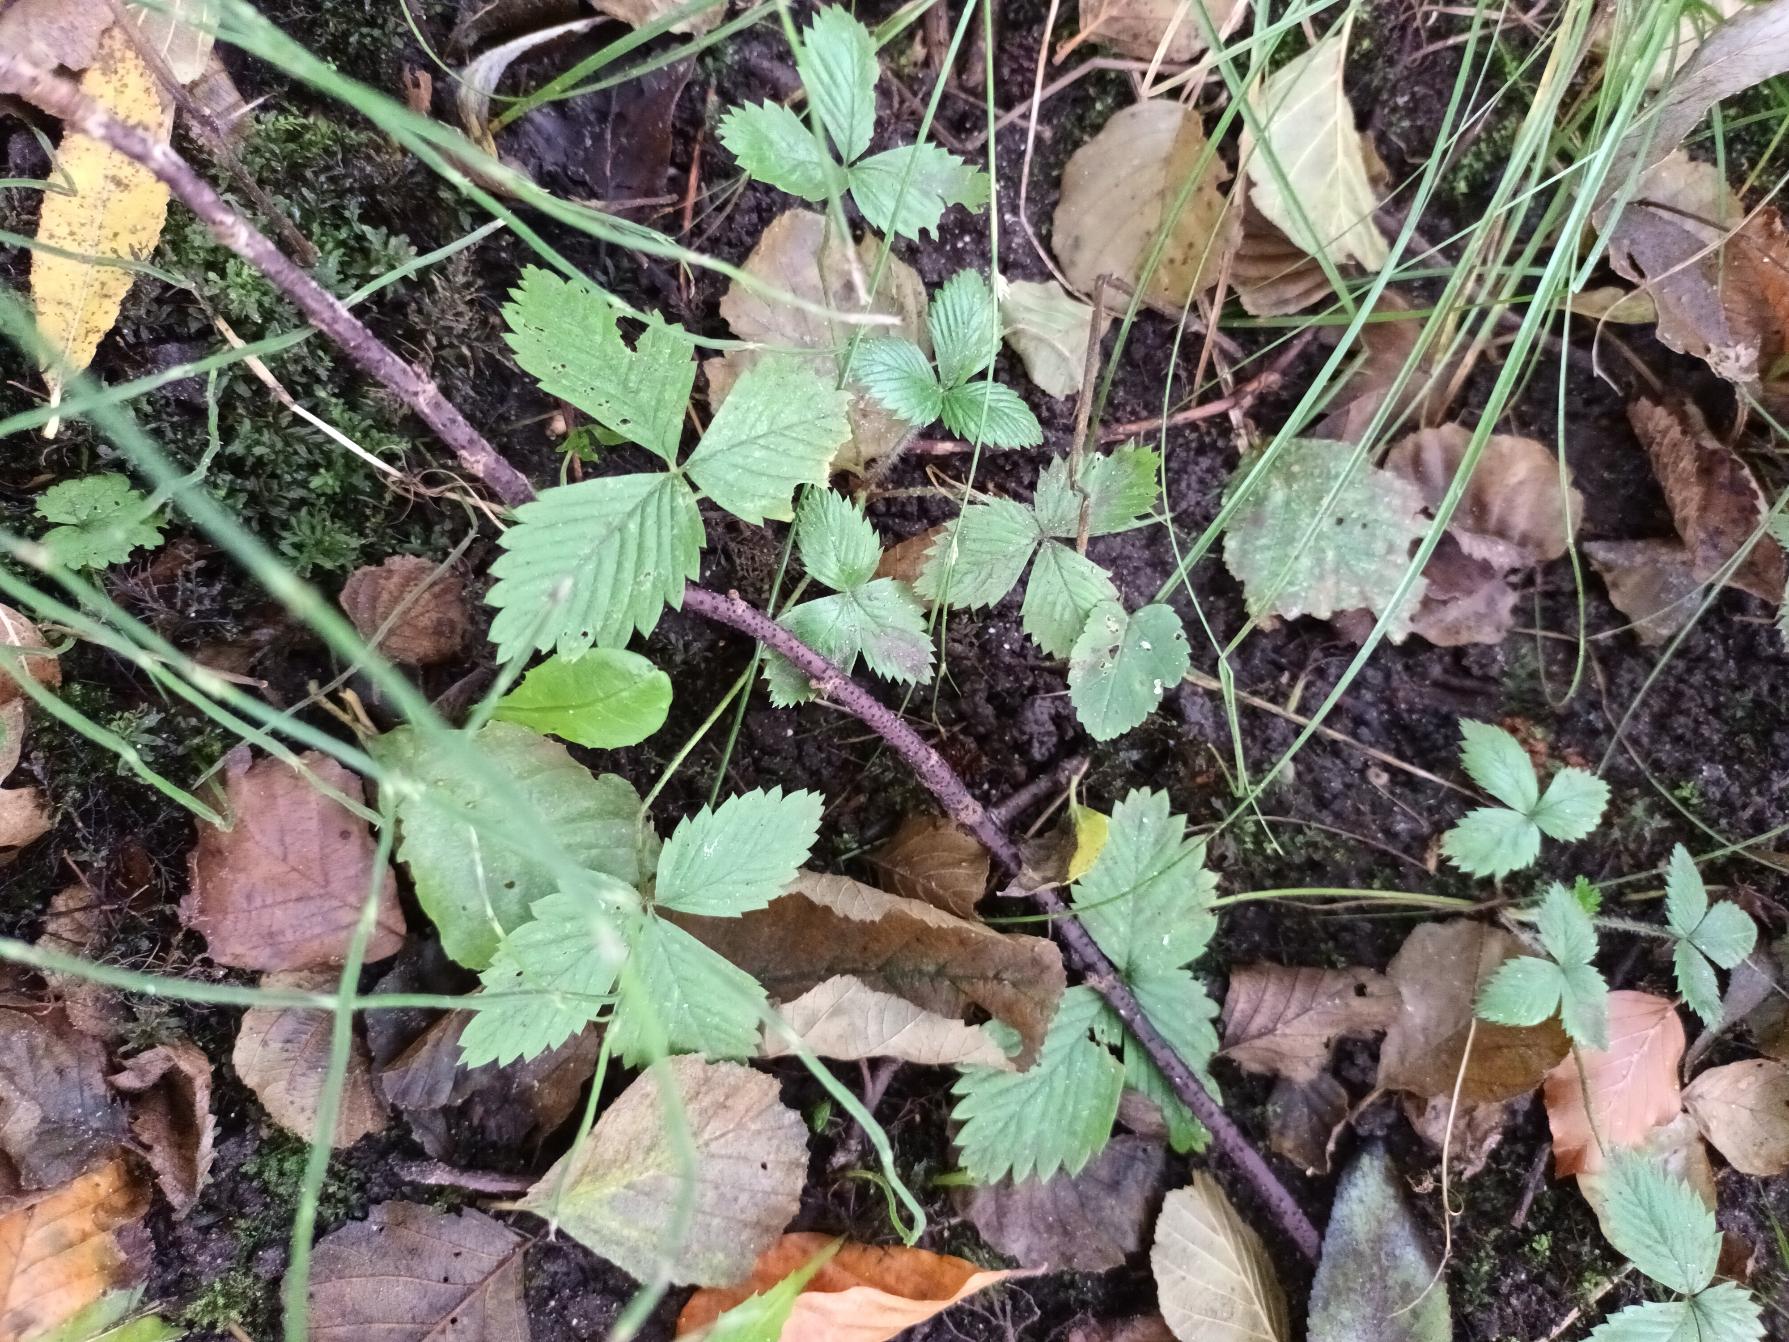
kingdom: Plantae
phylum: Tracheophyta
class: Magnoliopsida
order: Rosales
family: Rosaceae
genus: Fragaria
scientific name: Fragaria vesca
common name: Skov-jordbær
